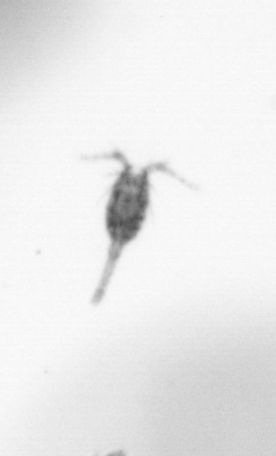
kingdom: Animalia
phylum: Arthropoda
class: Copepoda
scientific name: Copepoda
